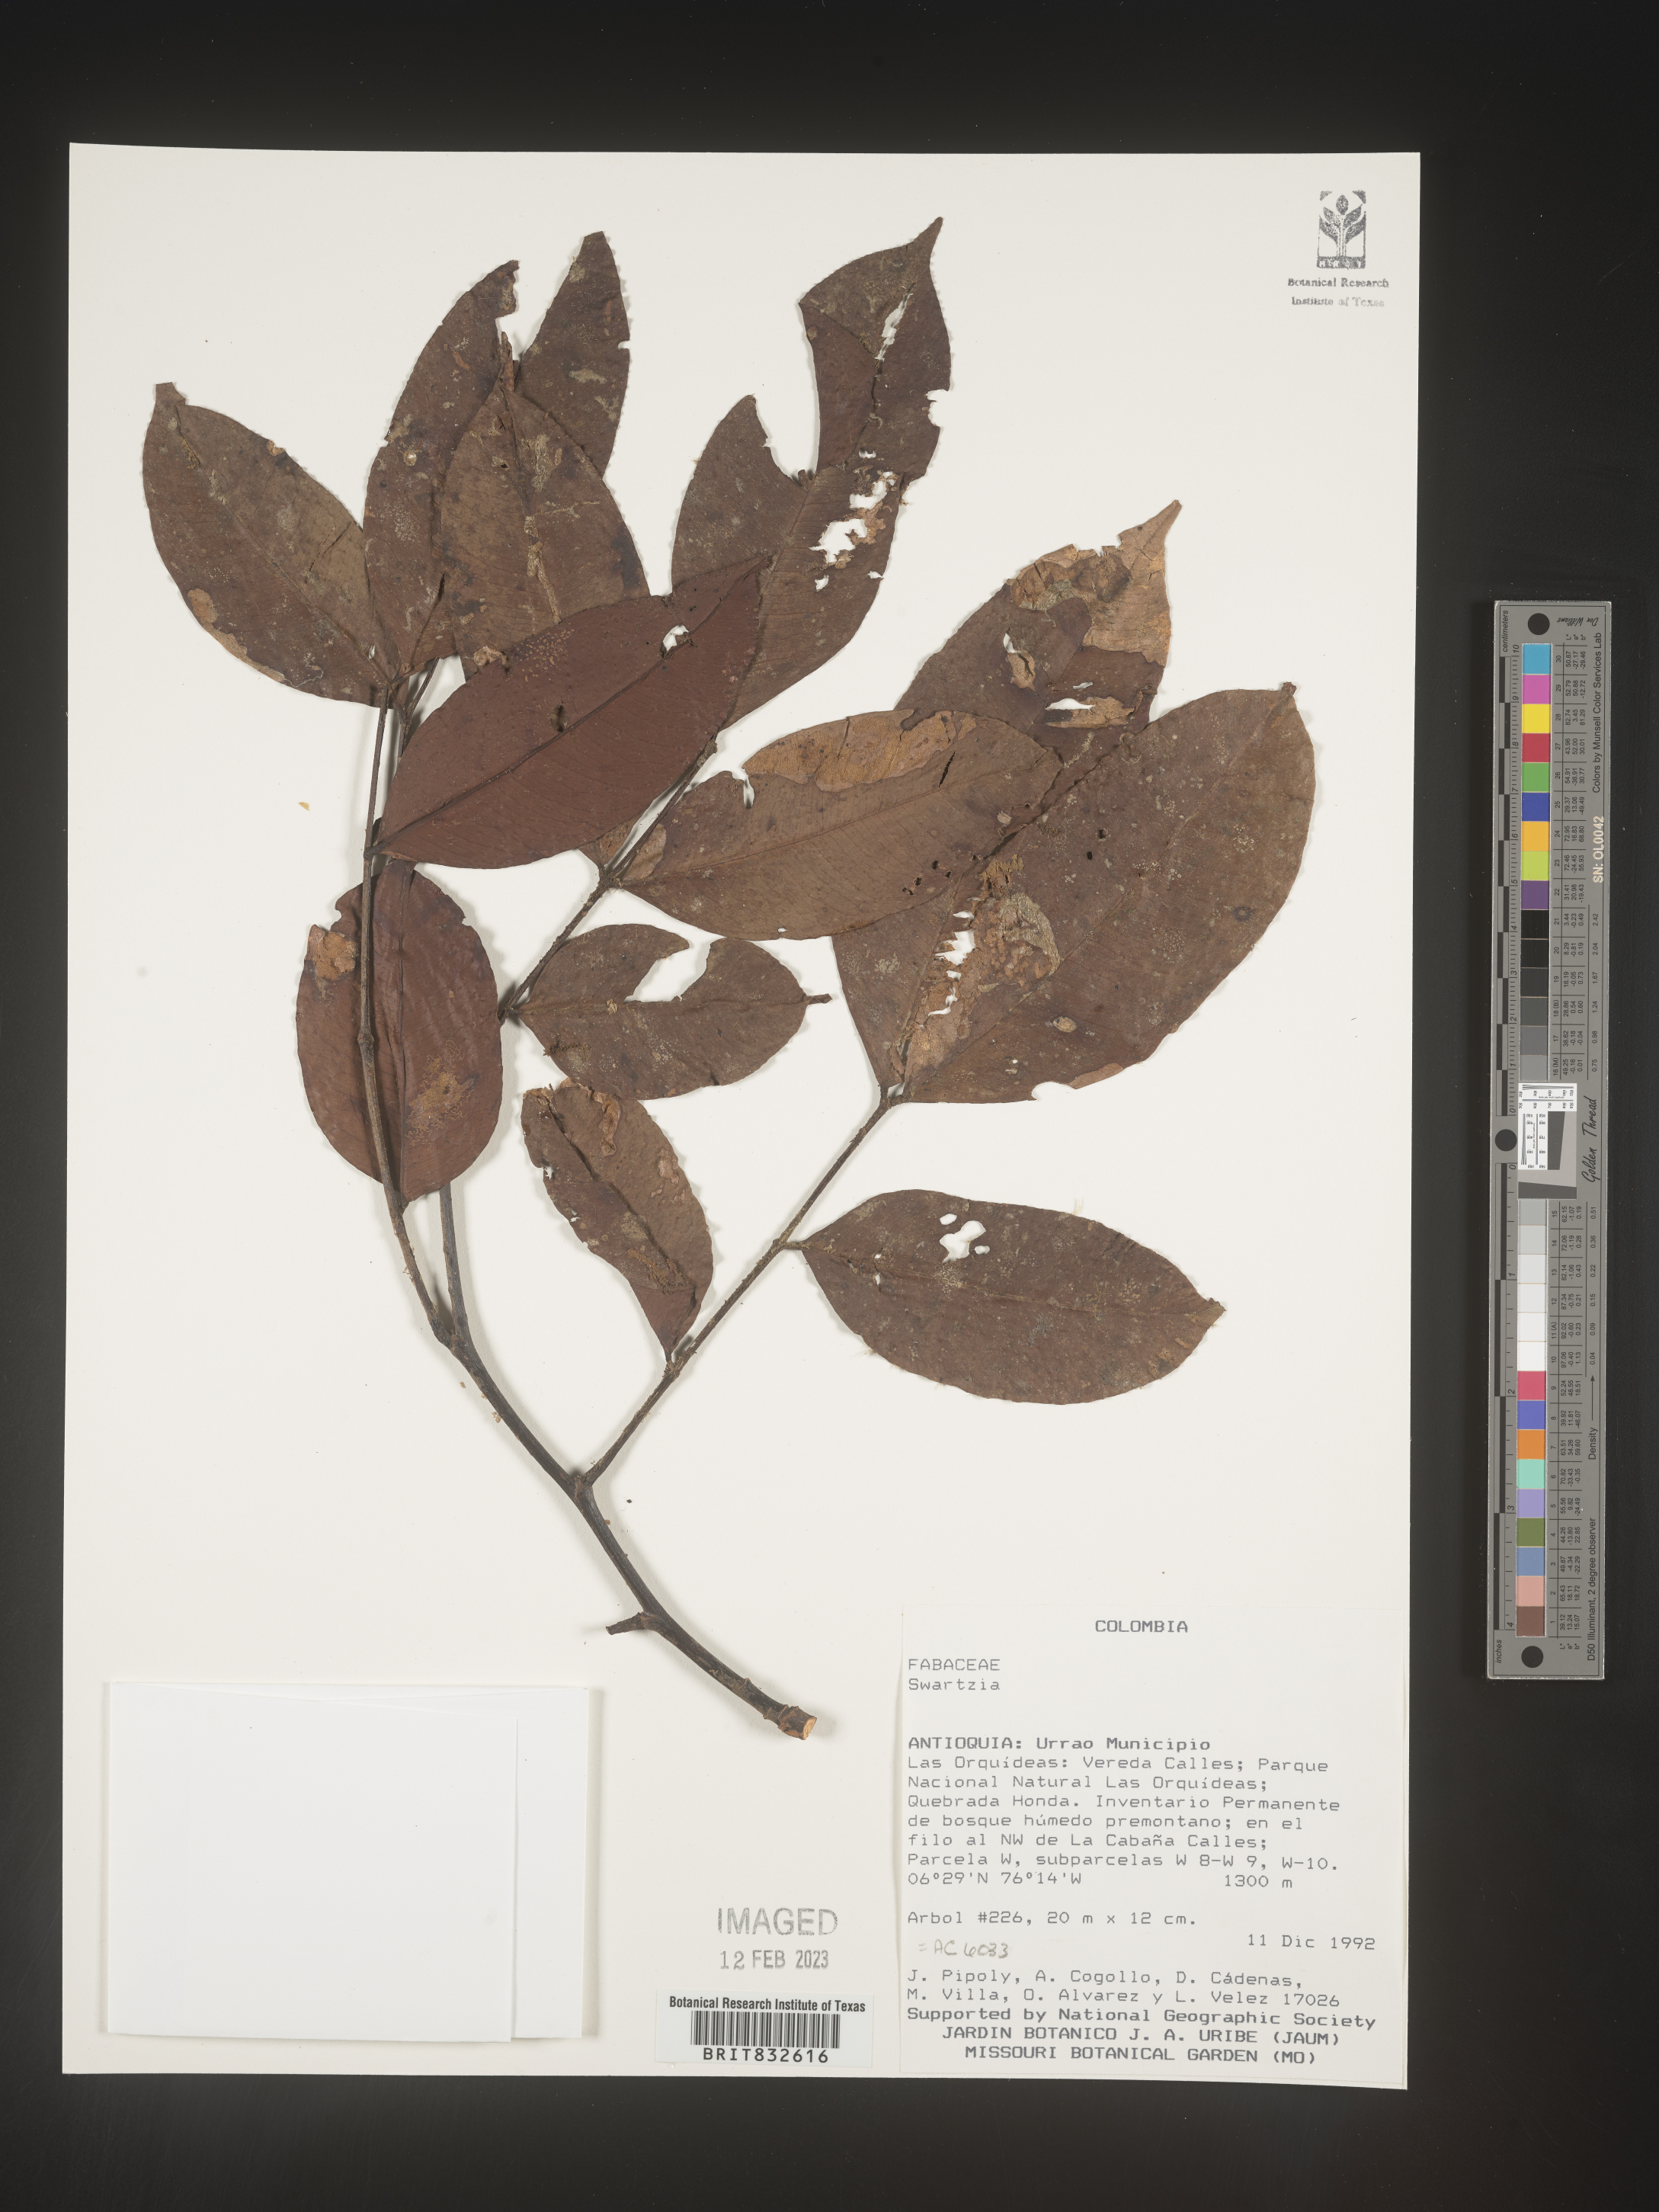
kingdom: Plantae
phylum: Tracheophyta
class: Magnoliopsida
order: Fabales
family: Fabaceae
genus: Swartzia
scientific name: Swartzia
